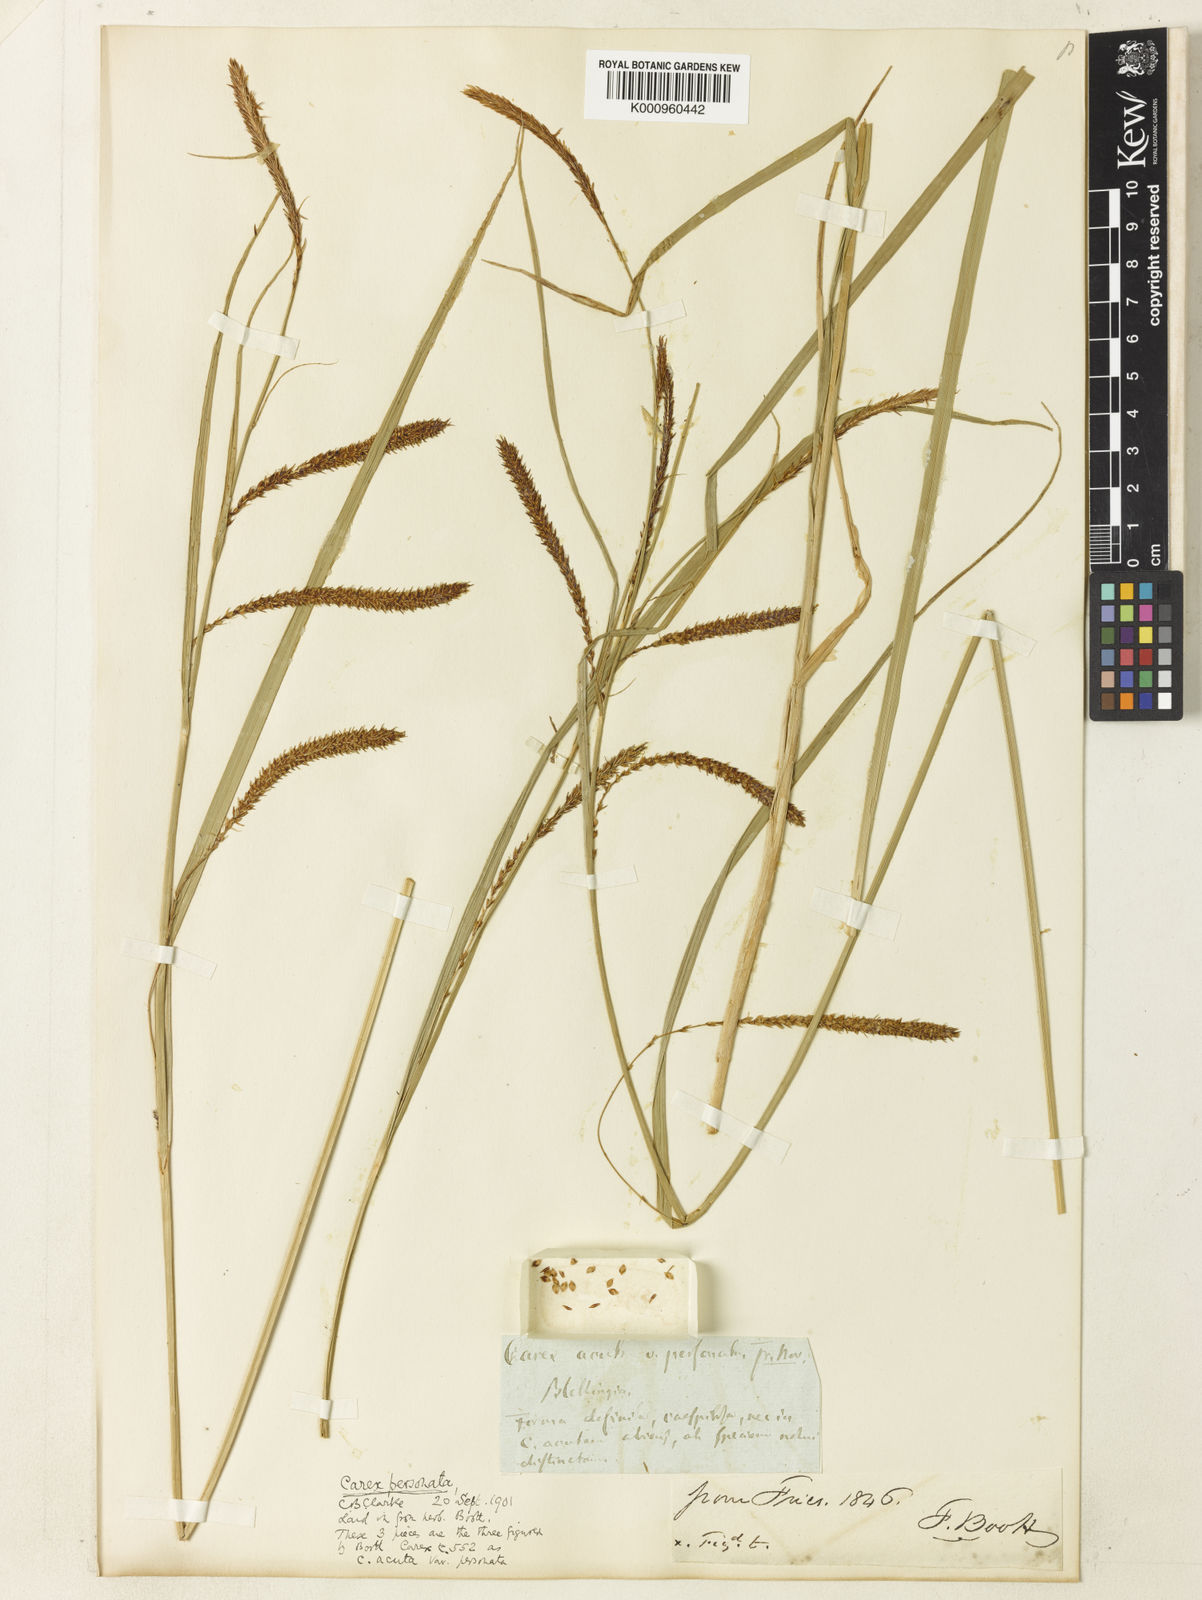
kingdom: Plantae
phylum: Tracheophyta
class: Liliopsida
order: Poales
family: Cyperaceae
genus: Carex
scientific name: Carex acuta
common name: Slender tufted-sedge
